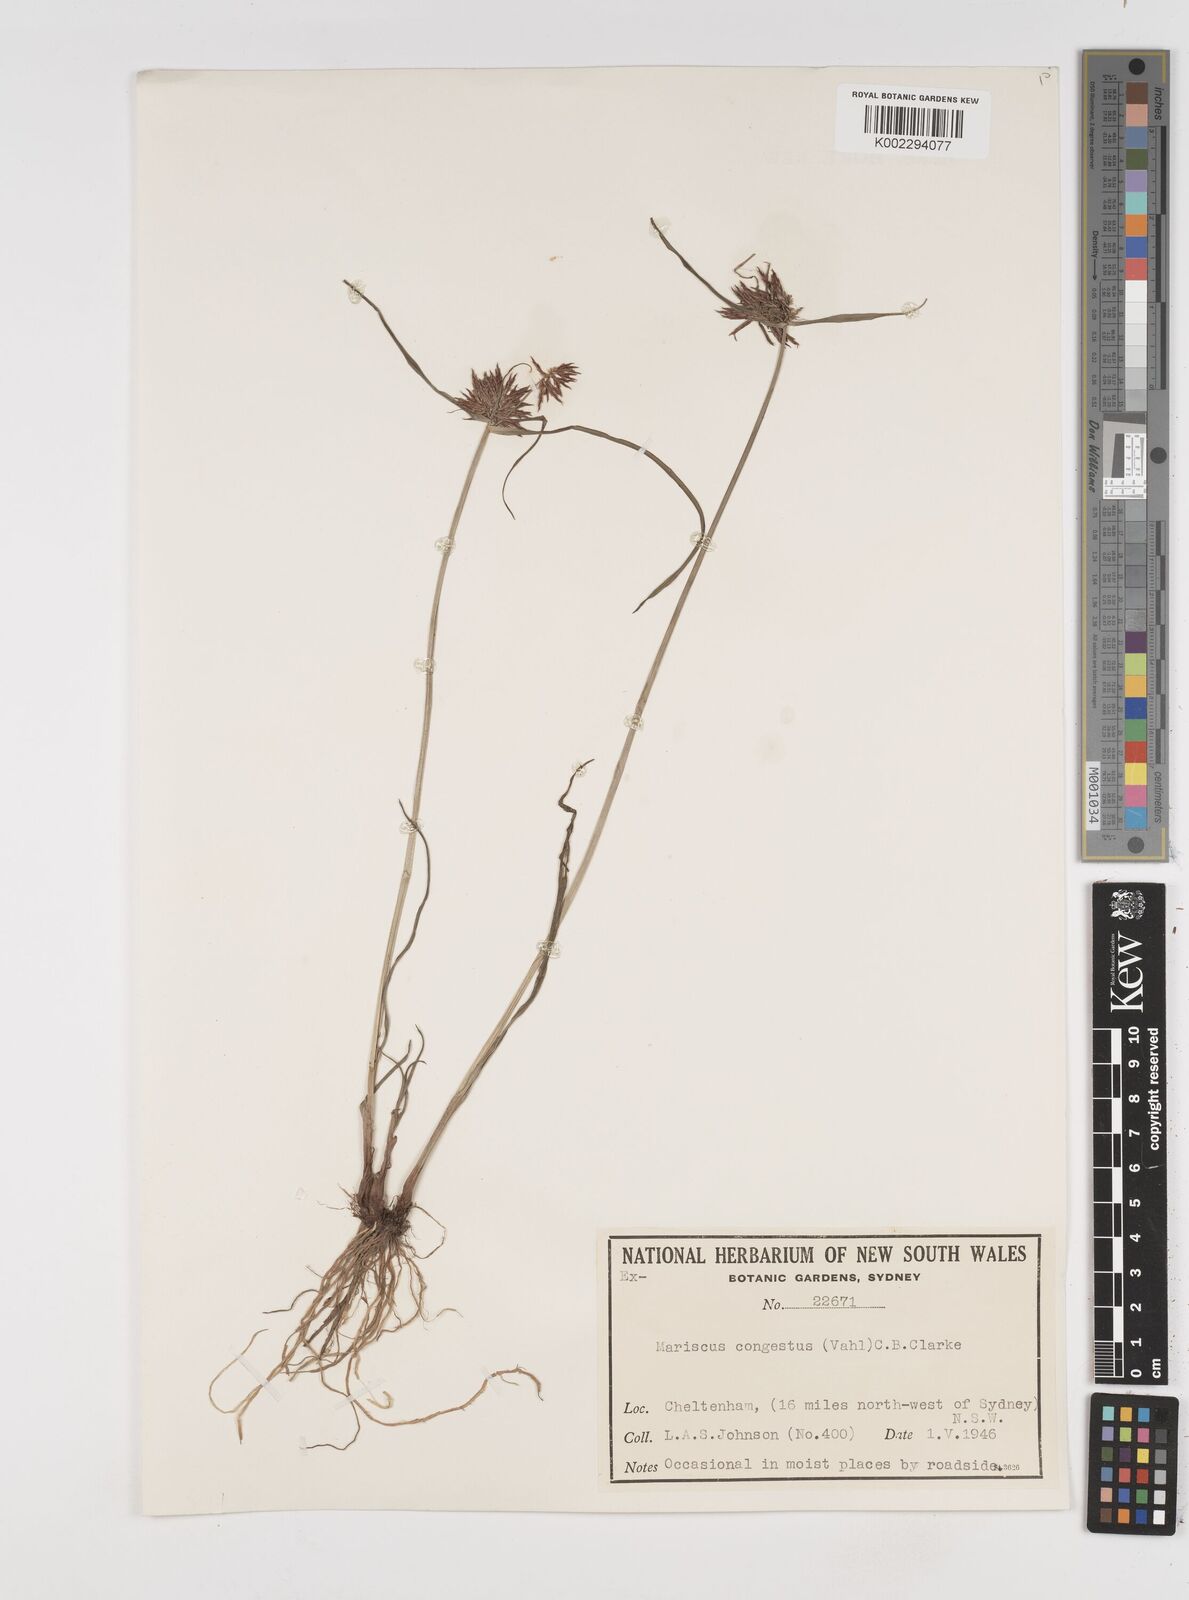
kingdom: Plantae
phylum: Tracheophyta
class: Liliopsida
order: Poales
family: Cyperaceae
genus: Cyperus
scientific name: Cyperus congestus
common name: Dense flat sedge
